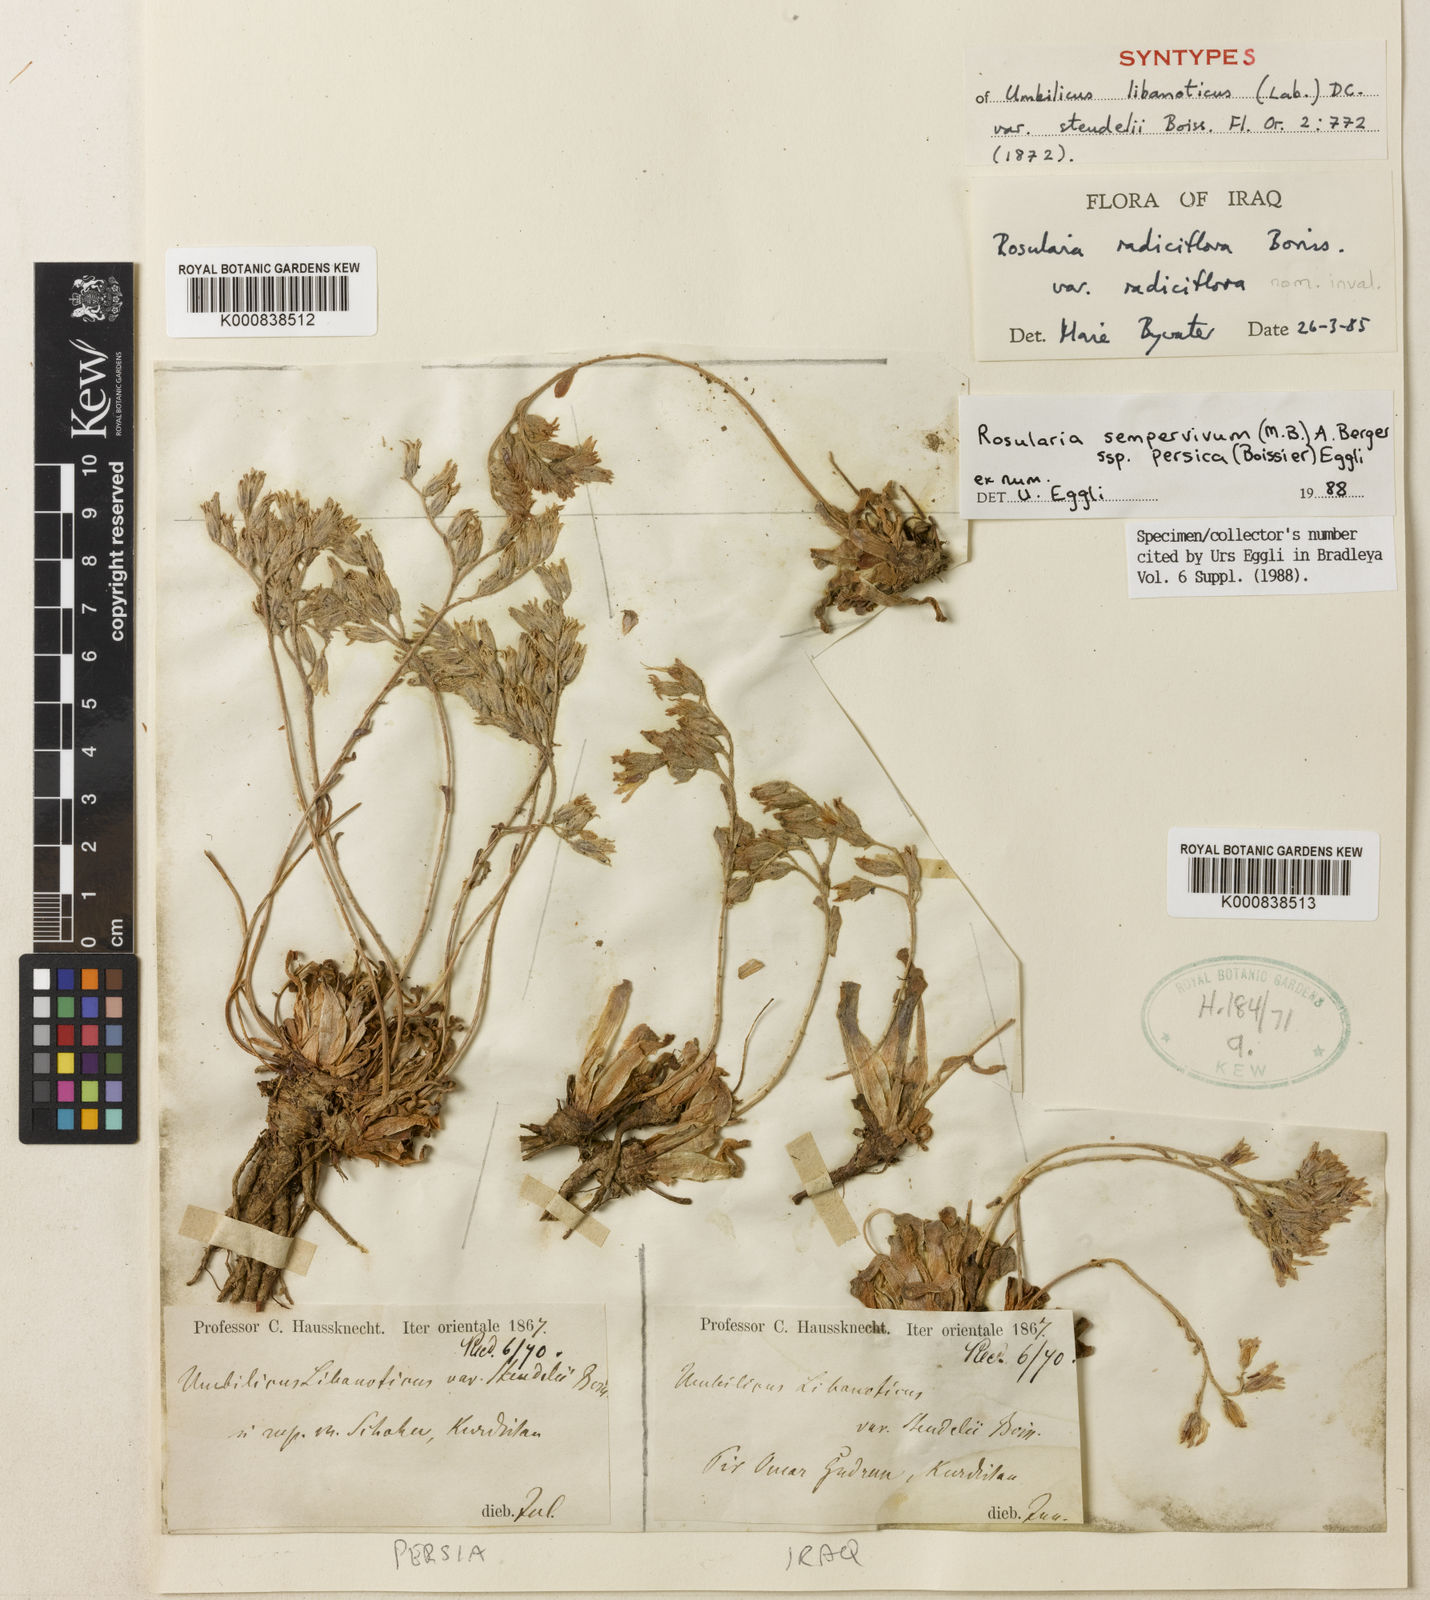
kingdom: Plantae
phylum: Tracheophyta
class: Magnoliopsida
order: Saxifragales
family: Crassulaceae
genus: Rosularia
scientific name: Rosularia sempervivum
